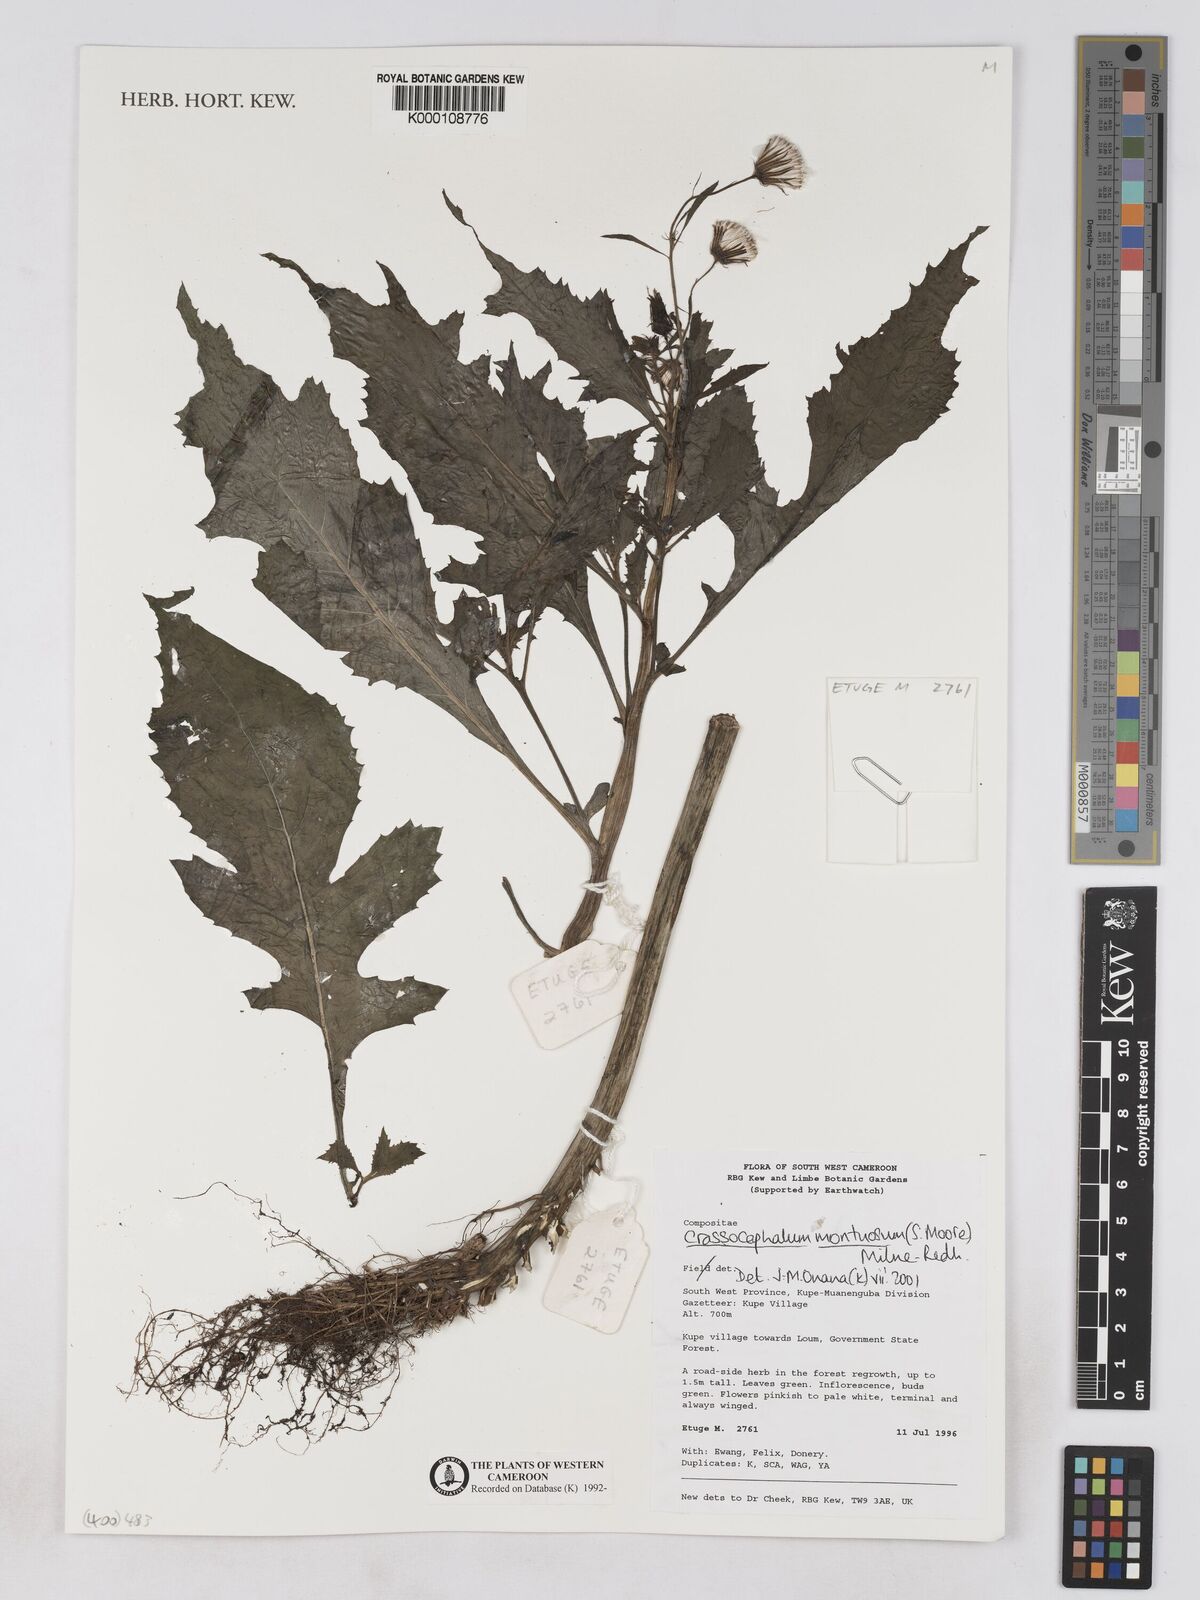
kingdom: Plantae
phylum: Tracheophyta
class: Magnoliopsida
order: Asterales
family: Asteraceae
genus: Crassocephalum
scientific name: Crassocephalum montuosum
